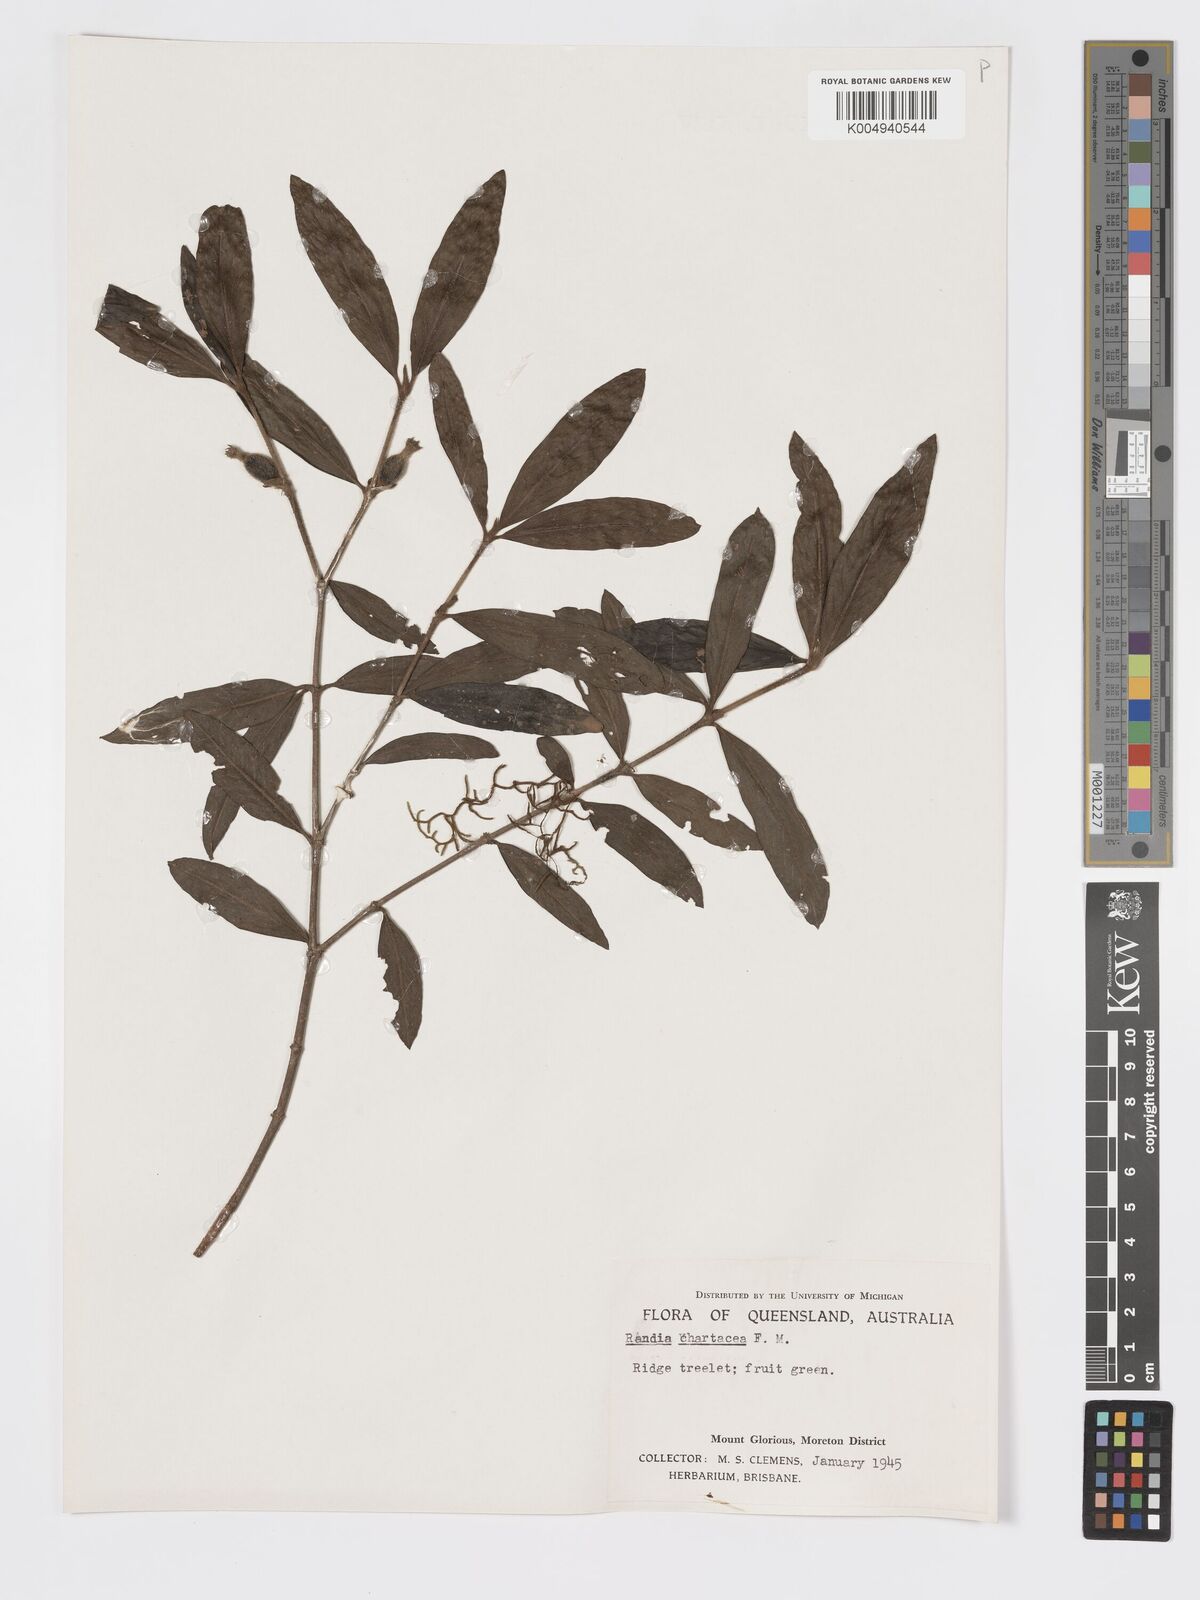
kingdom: Plantae
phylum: Tracheophyta
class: Magnoliopsida
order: Gentianales
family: Rubiaceae
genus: Atractocarpus
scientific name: Atractocarpus chartaceus
